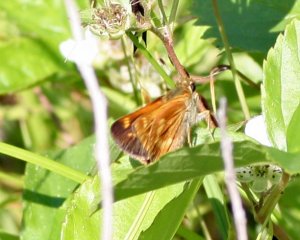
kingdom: Animalia
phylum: Arthropoda
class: Insecta
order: Lepidoptera
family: Hesperiidae
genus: Polites
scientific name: Polites
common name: Long Dash Skipper
